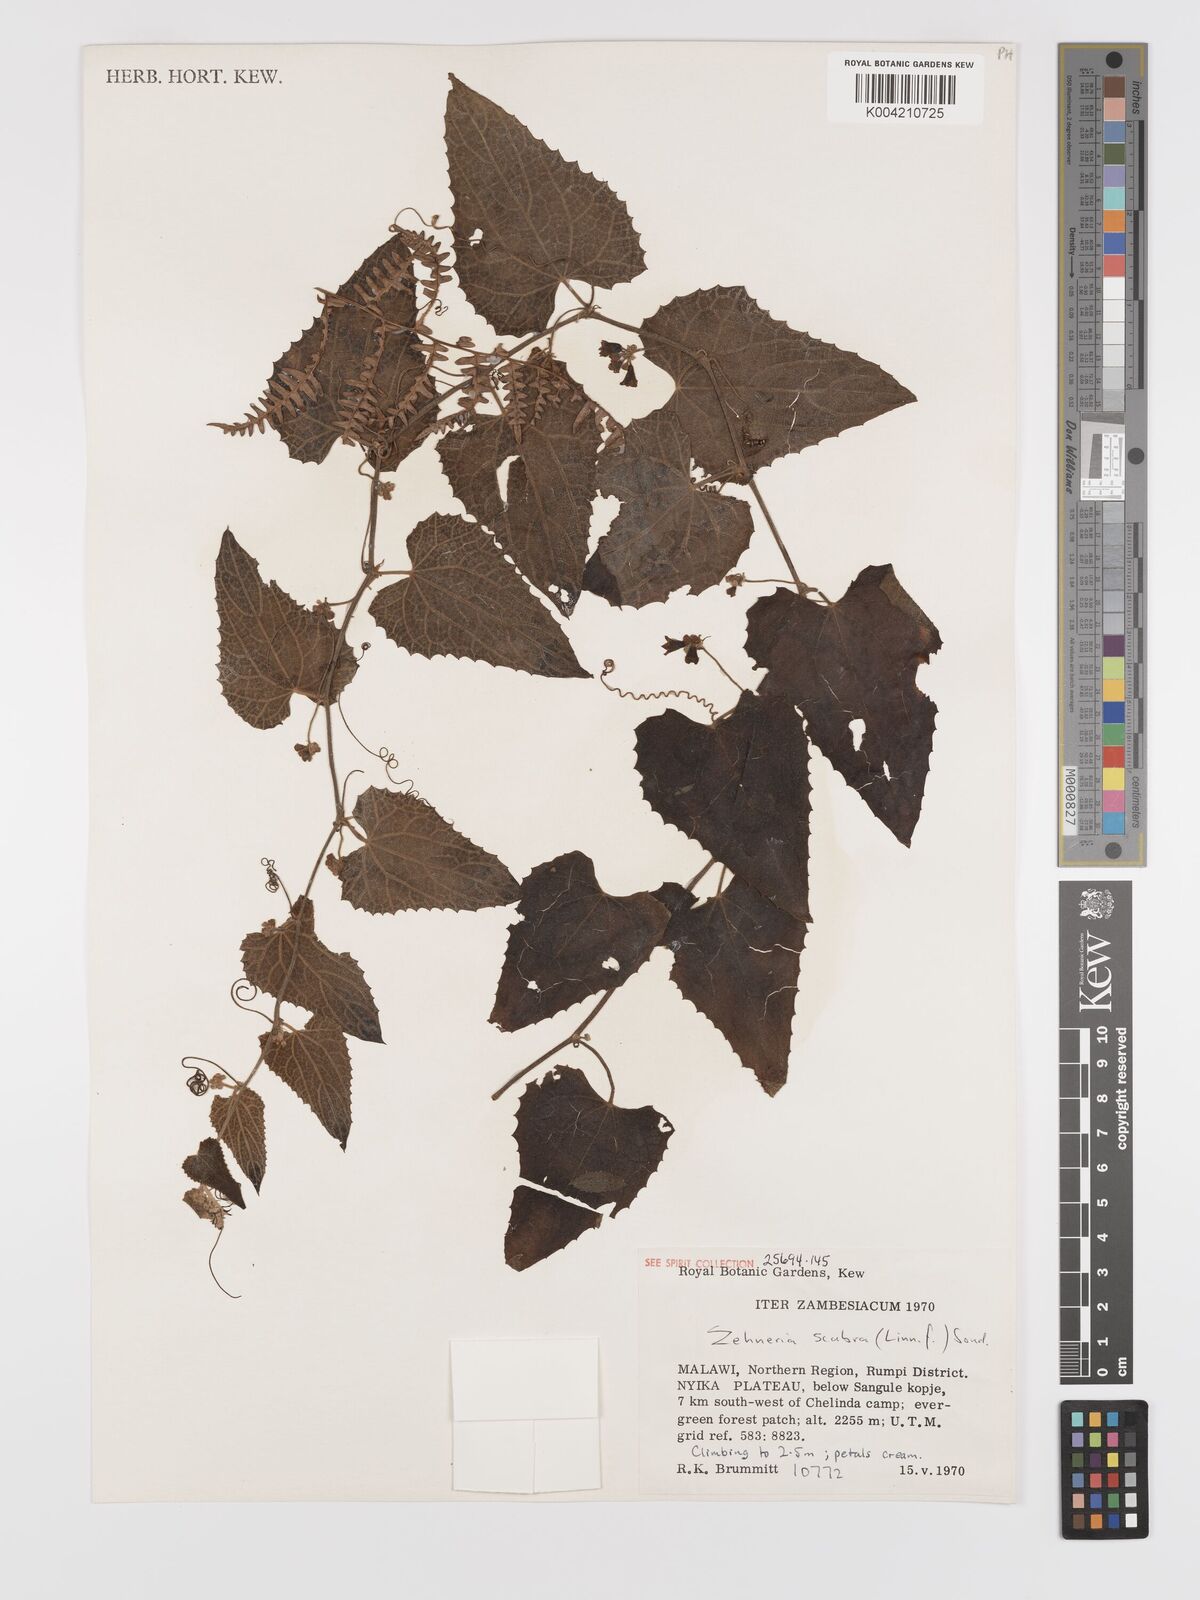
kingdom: Plantae
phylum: Tracheophyta
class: Magnoliopsida
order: Cucurbitales
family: Cucurbitaceae
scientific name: Cucurbitaceae
